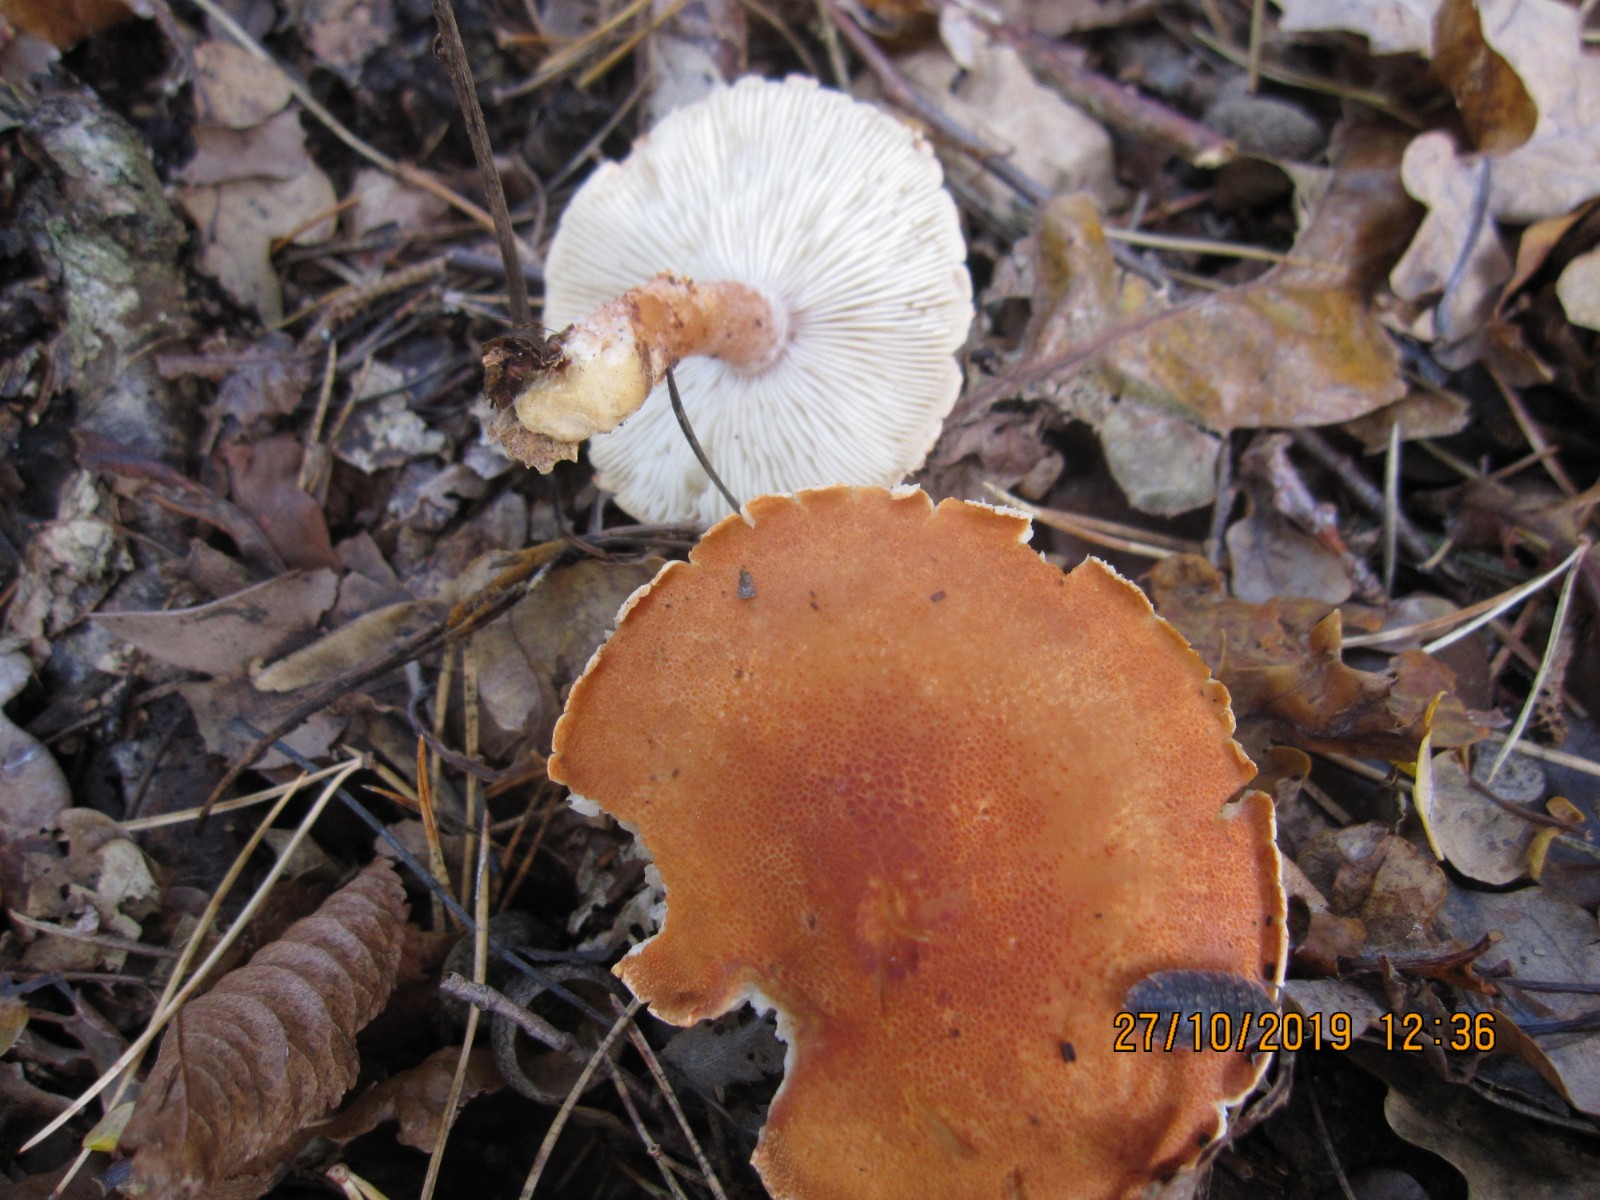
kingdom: Fungi
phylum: Basidiomycota
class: Agaricomycetes
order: Agaricales
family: Agaricaceae
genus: Cystodermella
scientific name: Cystodermella cinnabarina
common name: cinnober-grynhat
